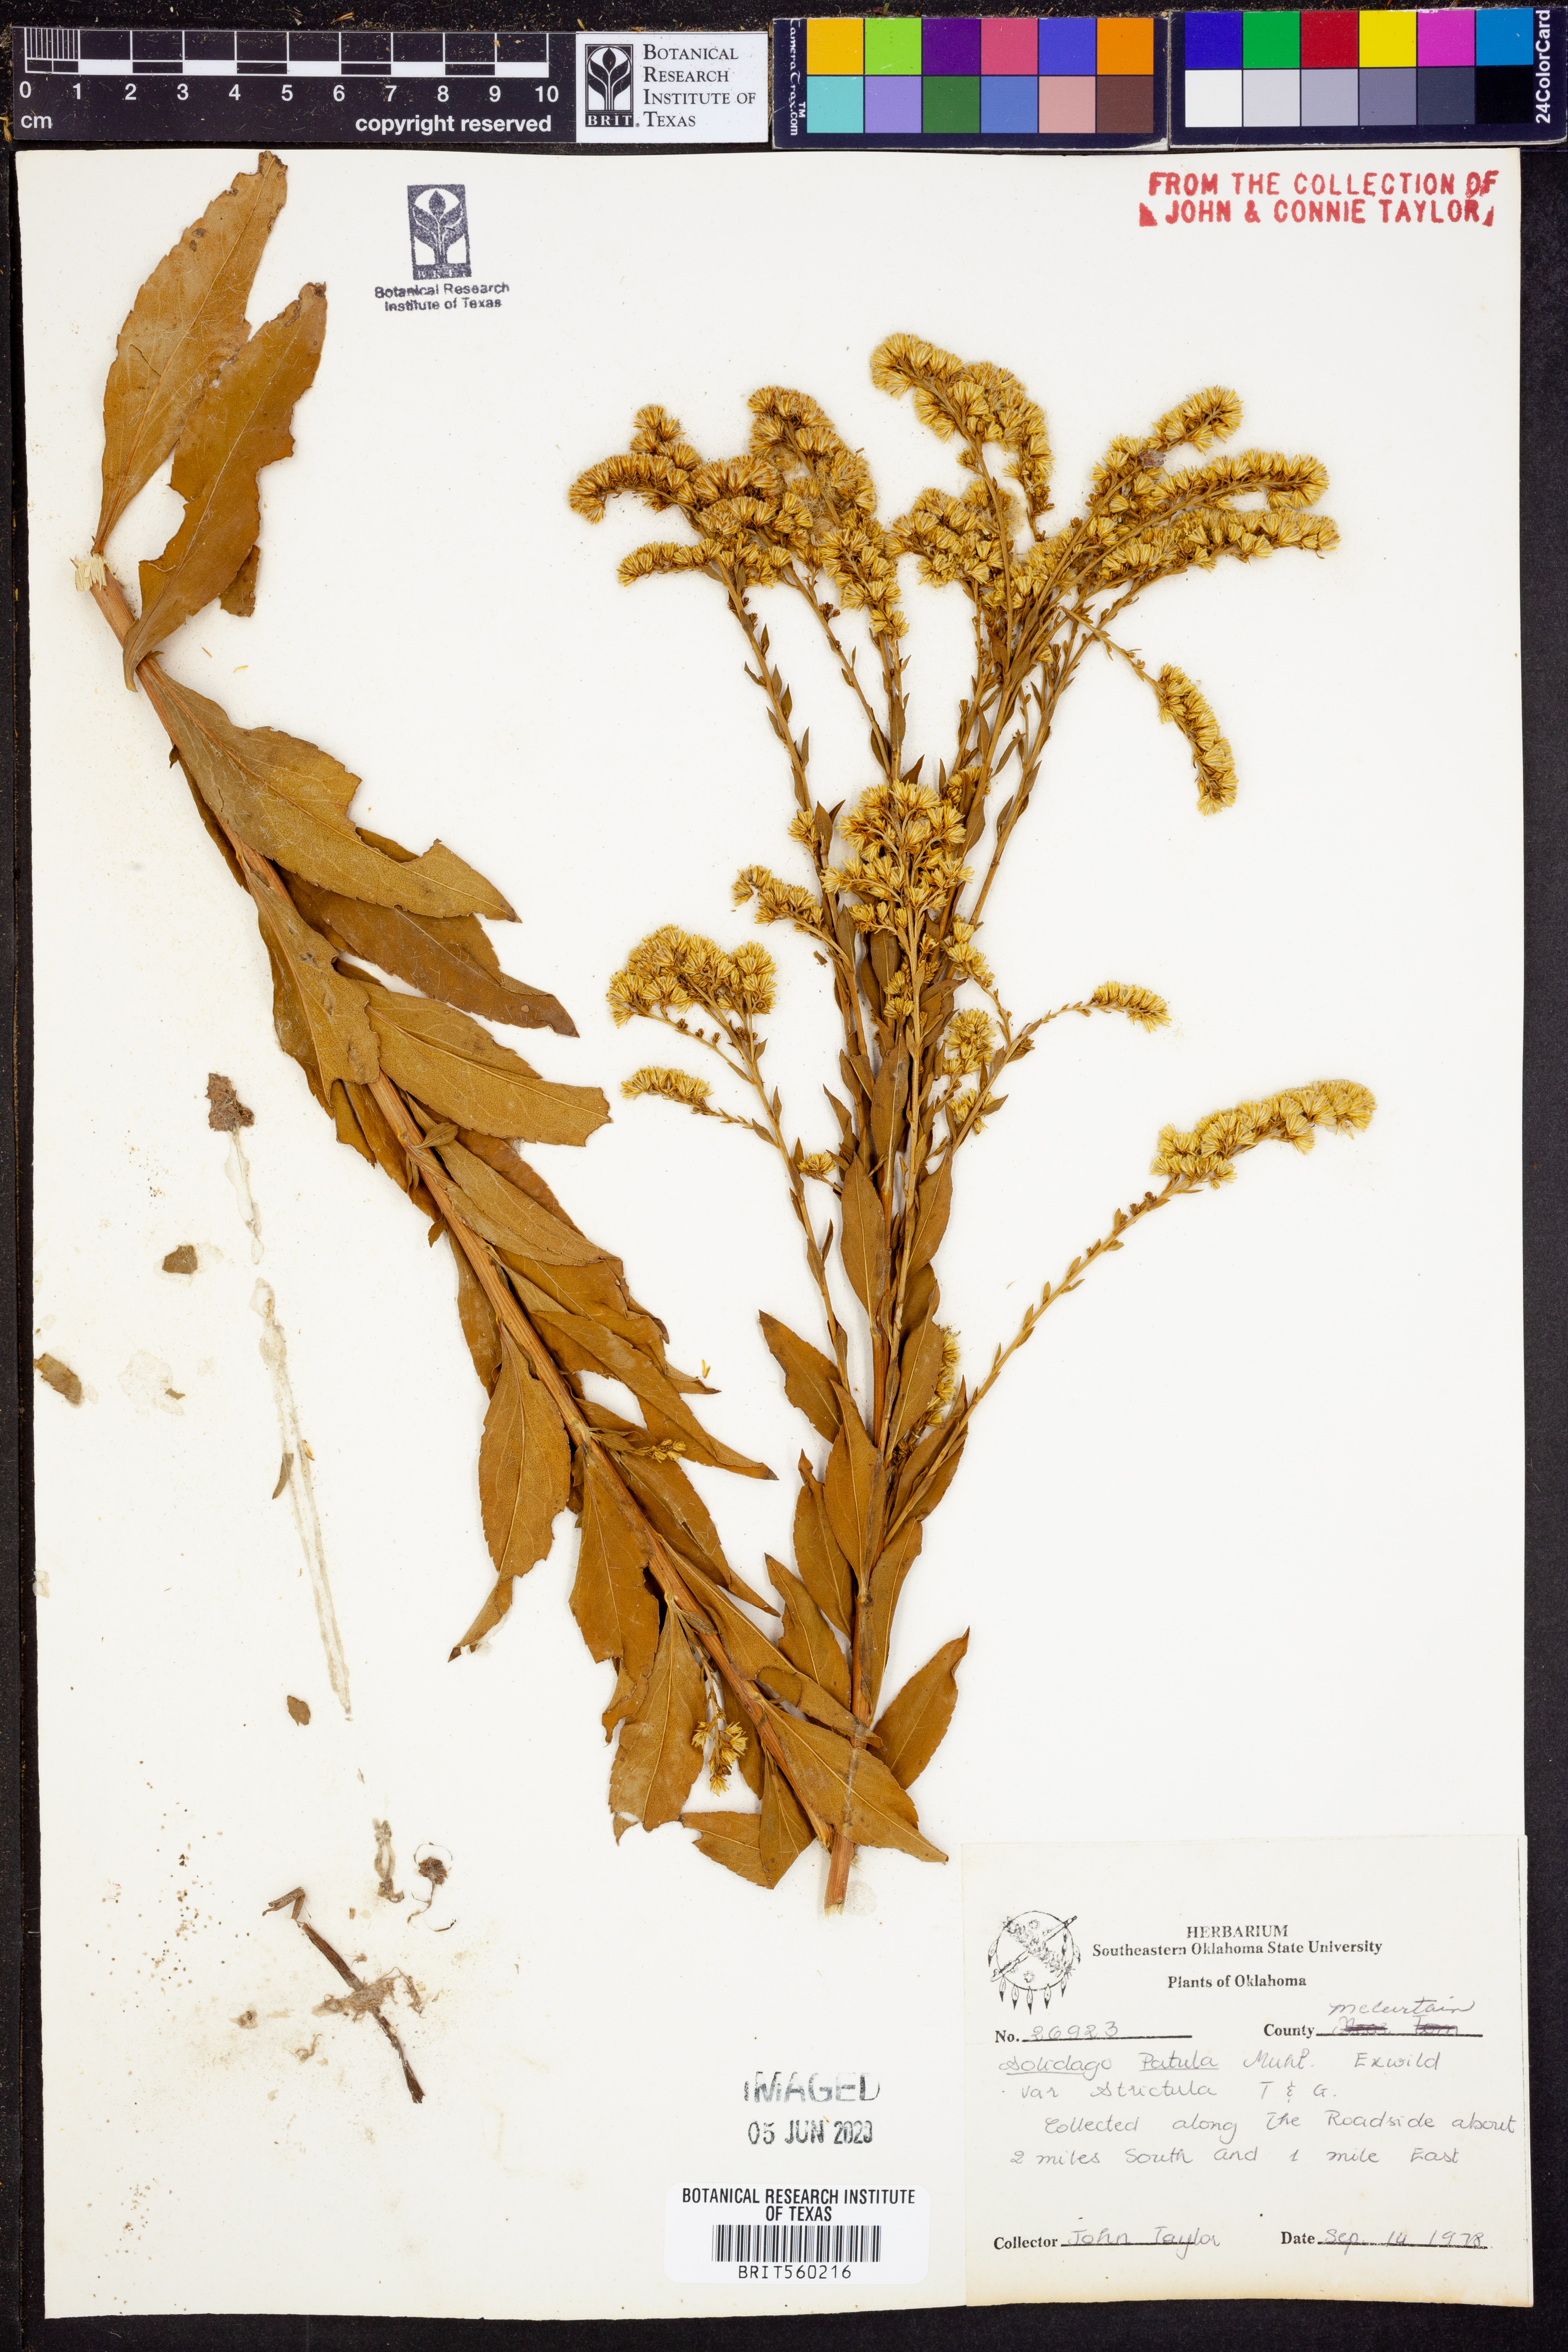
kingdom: Plantae
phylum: Tracheophyta
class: Magnoliopsida
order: Asterales
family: Asteraceae
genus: Solidago
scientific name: Solidago patula
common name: Rough-leaf goldenrod
